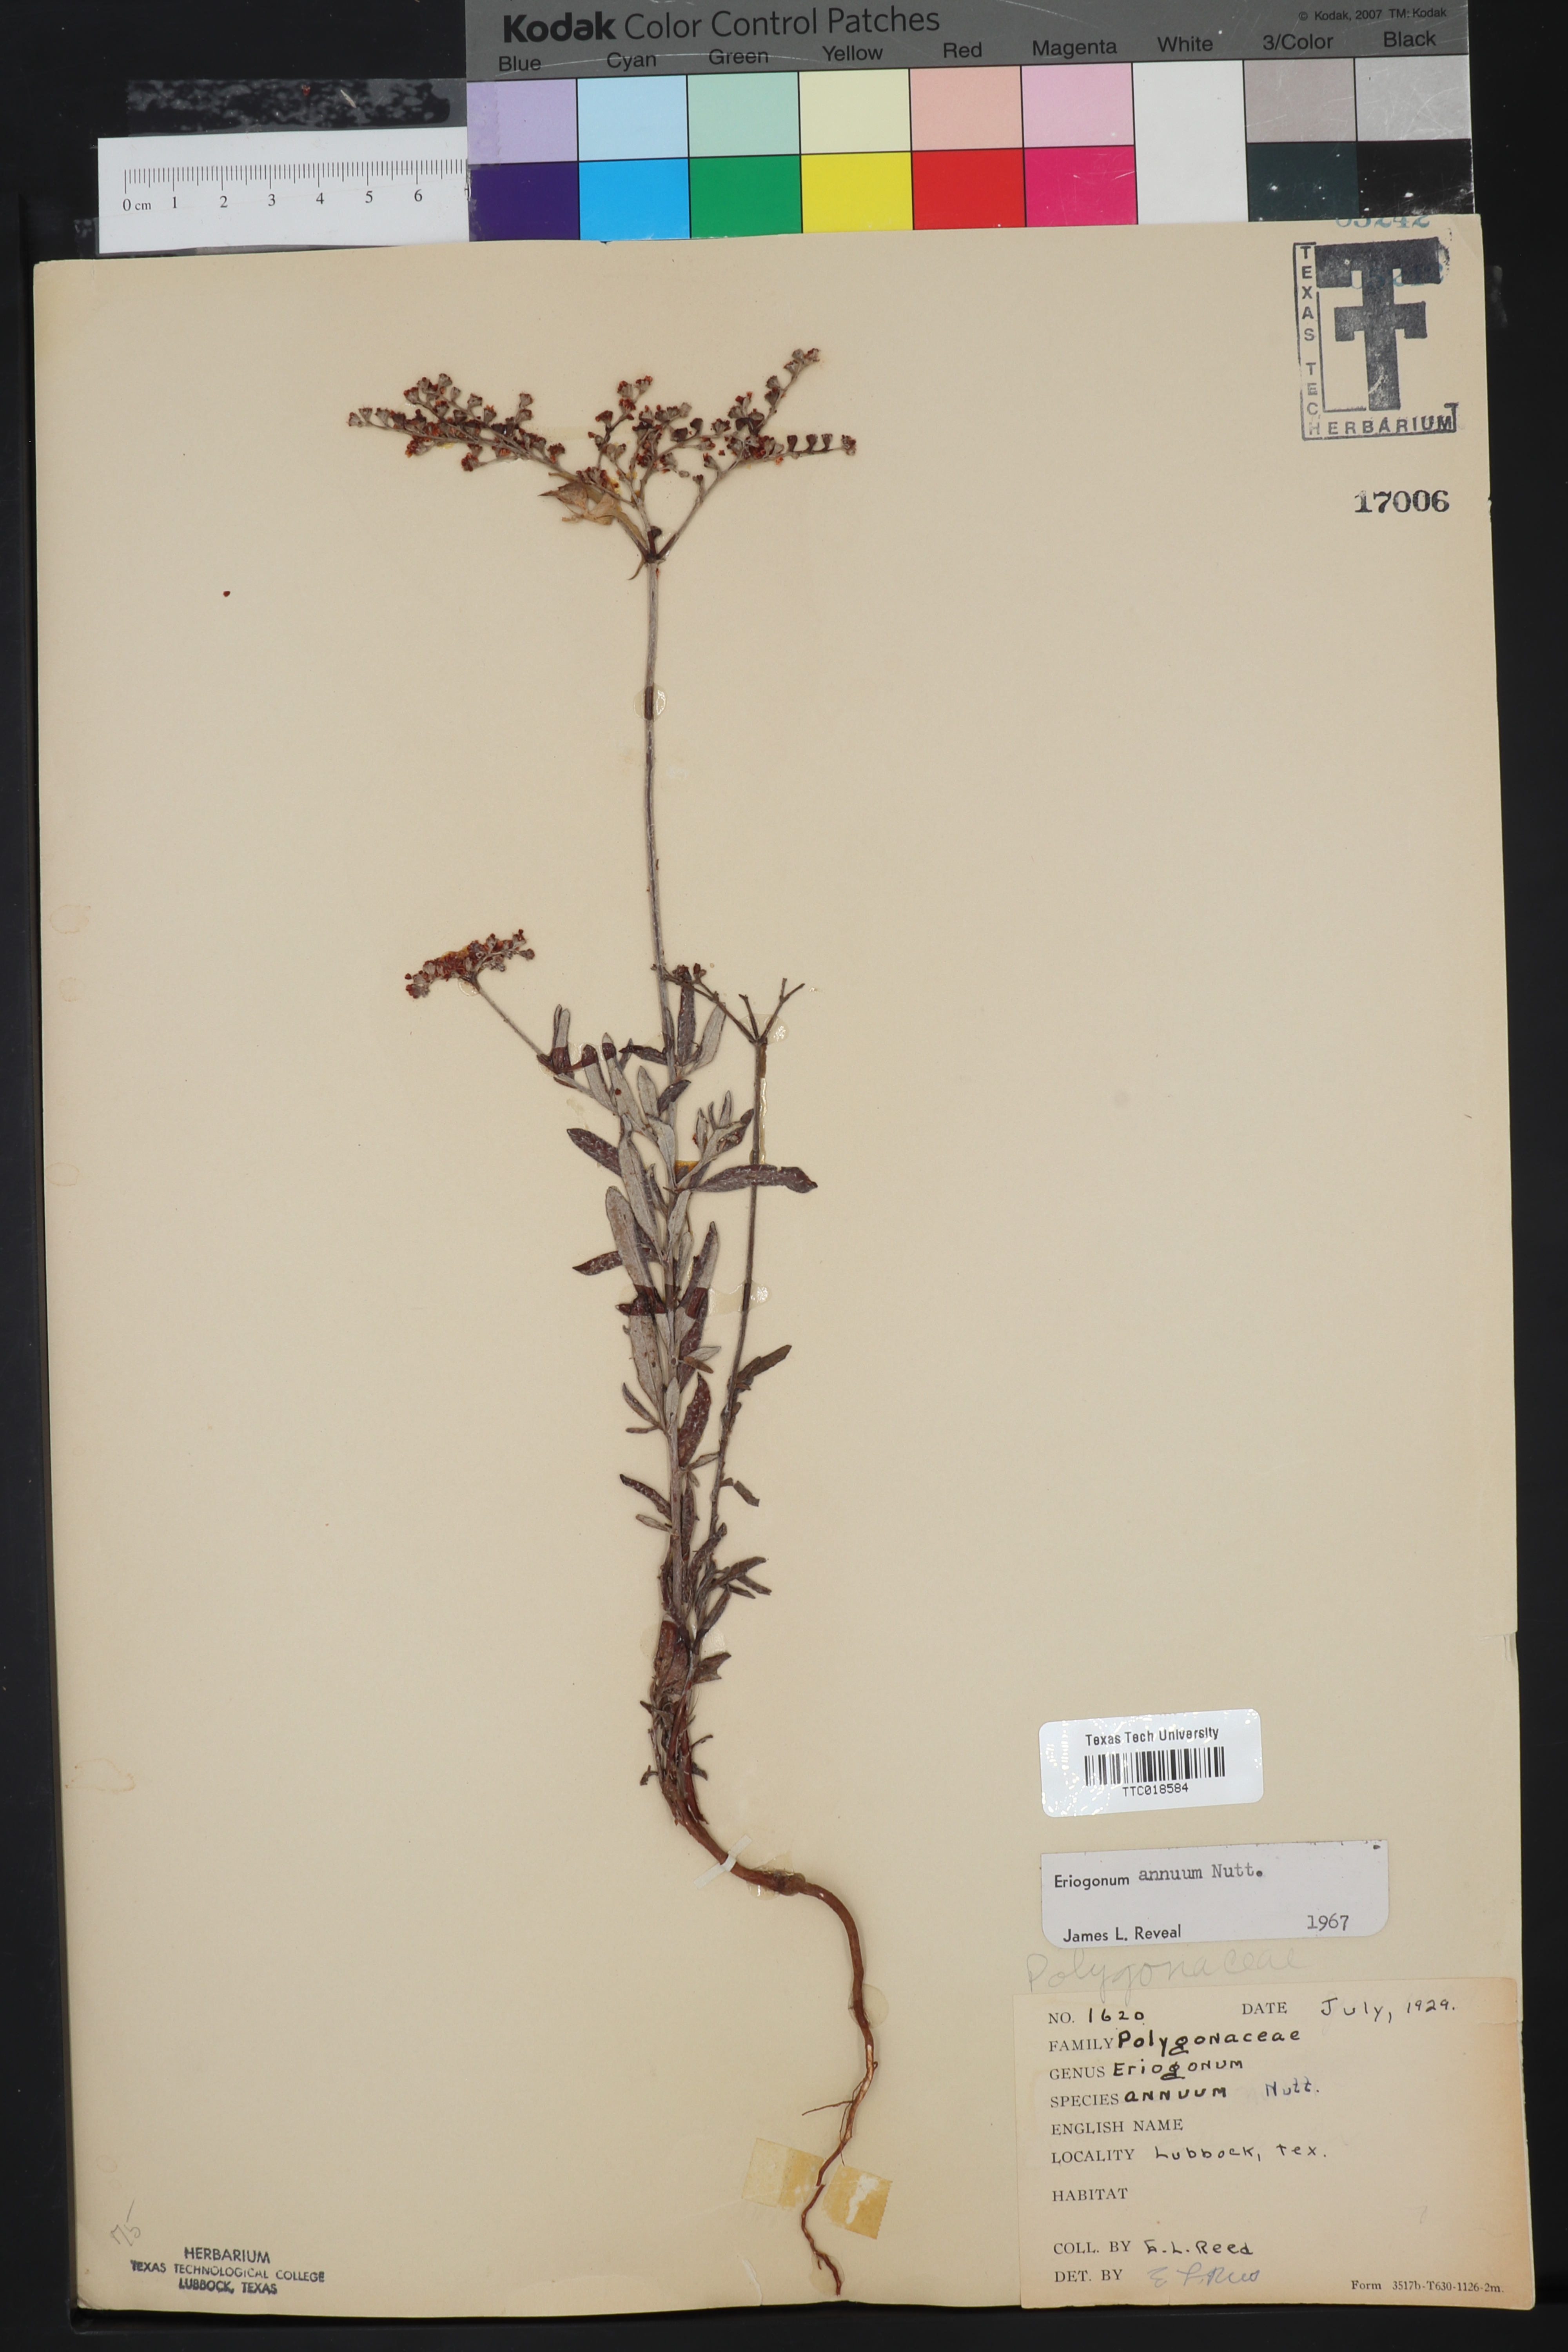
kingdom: Plantae
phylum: Tracheophyta
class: Magnoliopsida
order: Caryophyllales
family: Polygonaceae
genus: Eriogonum
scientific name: Eriogonum annuum
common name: Annual wild buckwheat
